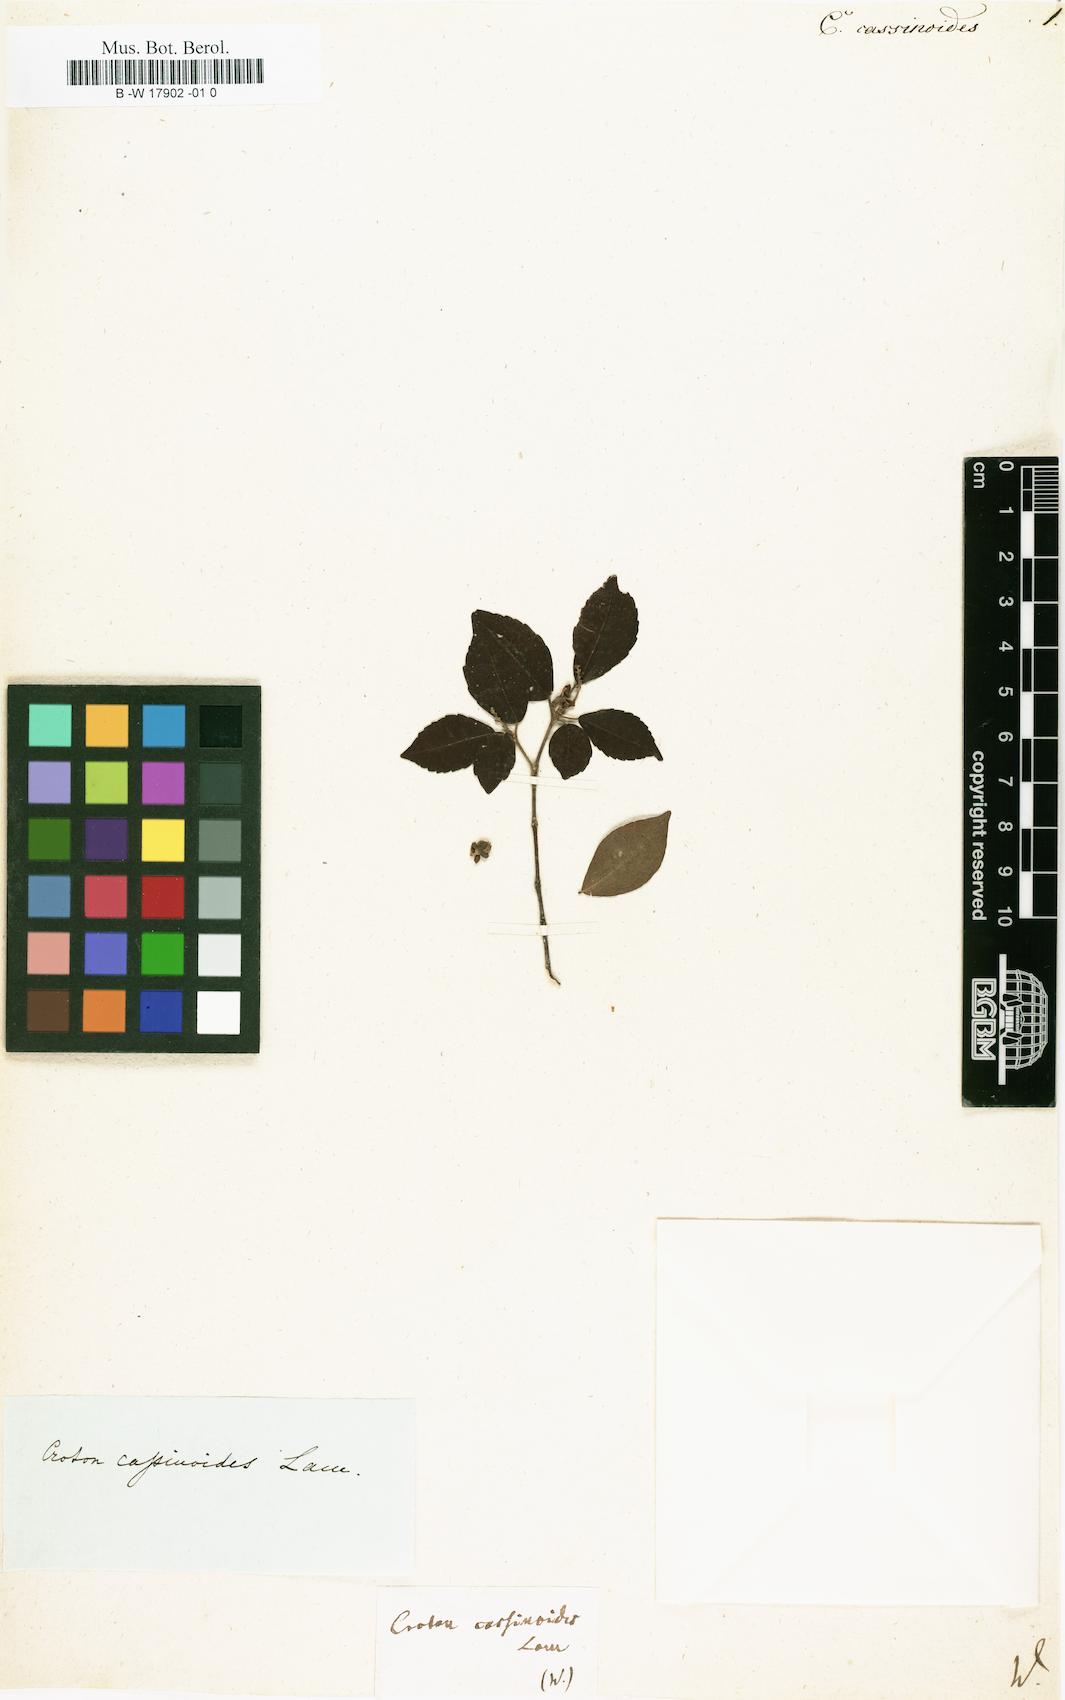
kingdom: Plantae
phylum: Tracheophyta
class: Magnoliopsida
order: Malpighiales
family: Euphorbiaceae
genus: Croton
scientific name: Croton cassinoides
